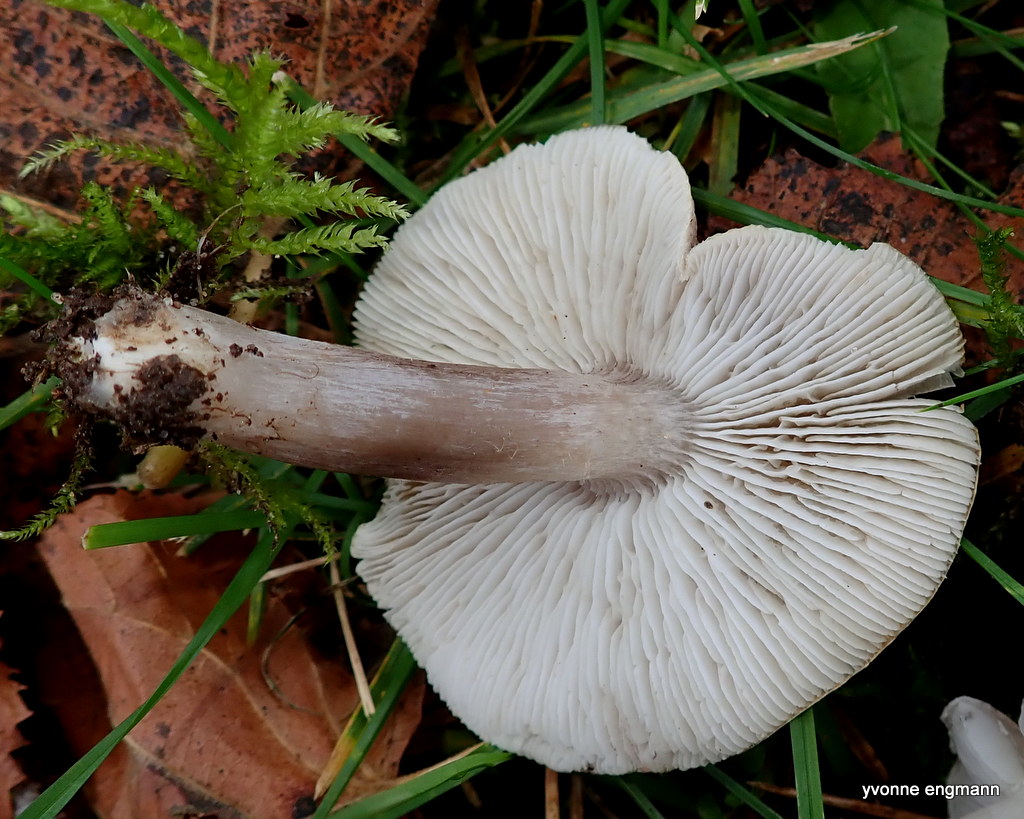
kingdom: Fungi
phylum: Basidiomycota
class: Agaricomycetes
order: Agaricales
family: Tricholomataceae
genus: Tricholoma
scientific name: Tricholoma scalpturatum
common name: gulplettet ridderhat
